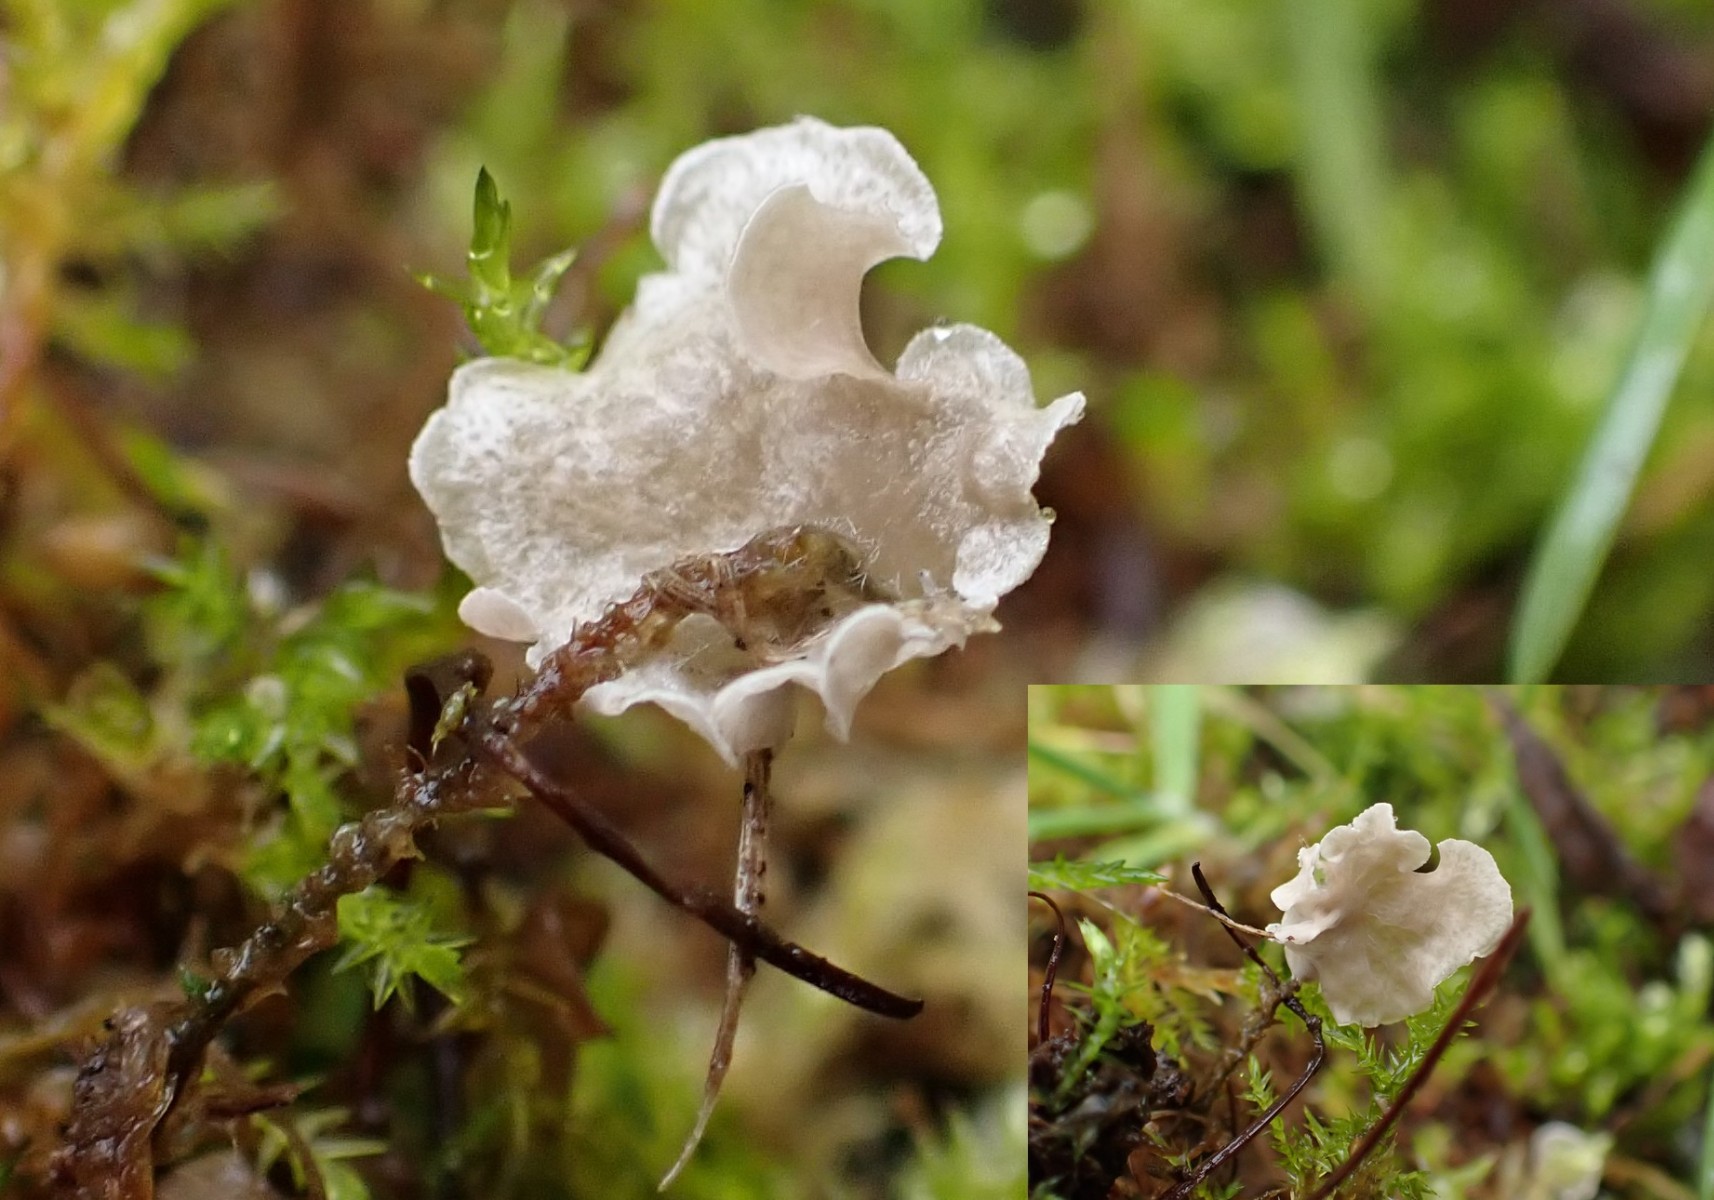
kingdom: Fungi
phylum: Basidiomycota
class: Agaricomycetes
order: Agaricales
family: Hygrophoraceae
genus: Arrhenia
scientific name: Arrhenia retiruga
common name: lille fontænehat
